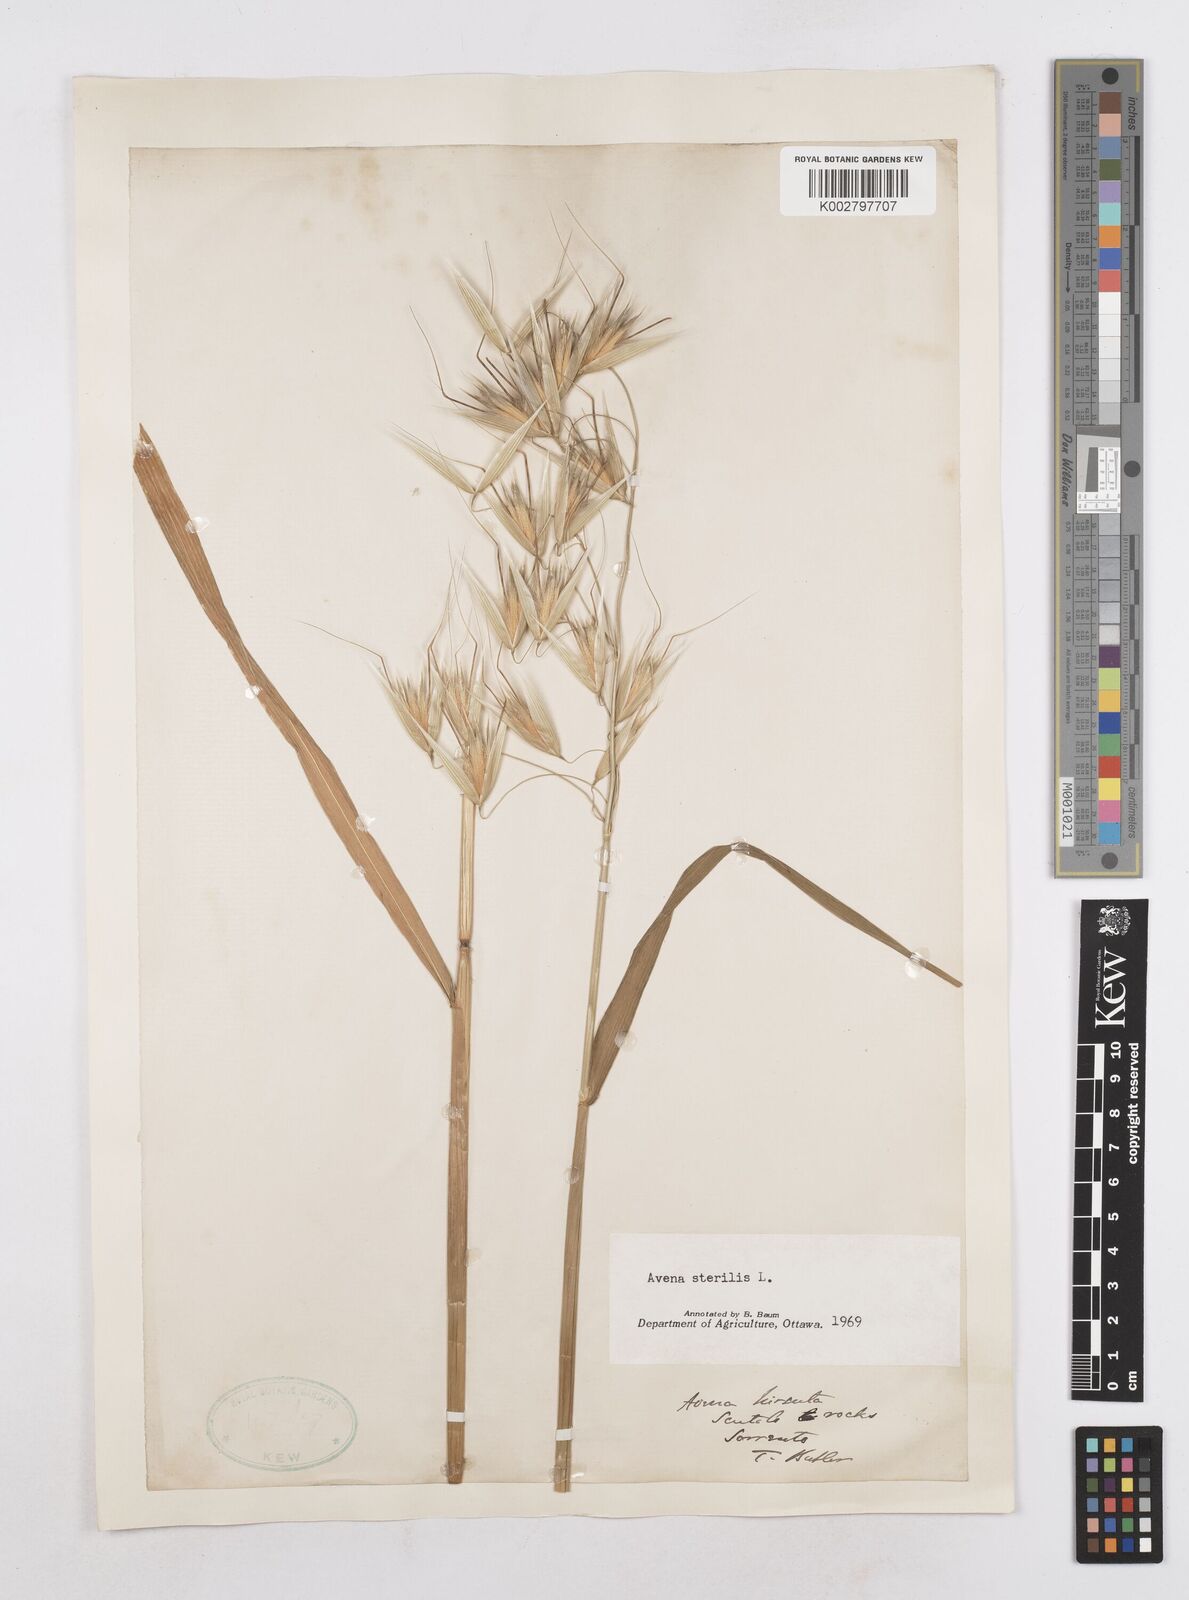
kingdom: Plantae
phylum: Tracheophyta
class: Liliopsida
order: Poales
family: Poaceae
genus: Avena
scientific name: Avena sterilis
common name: Animated oat
